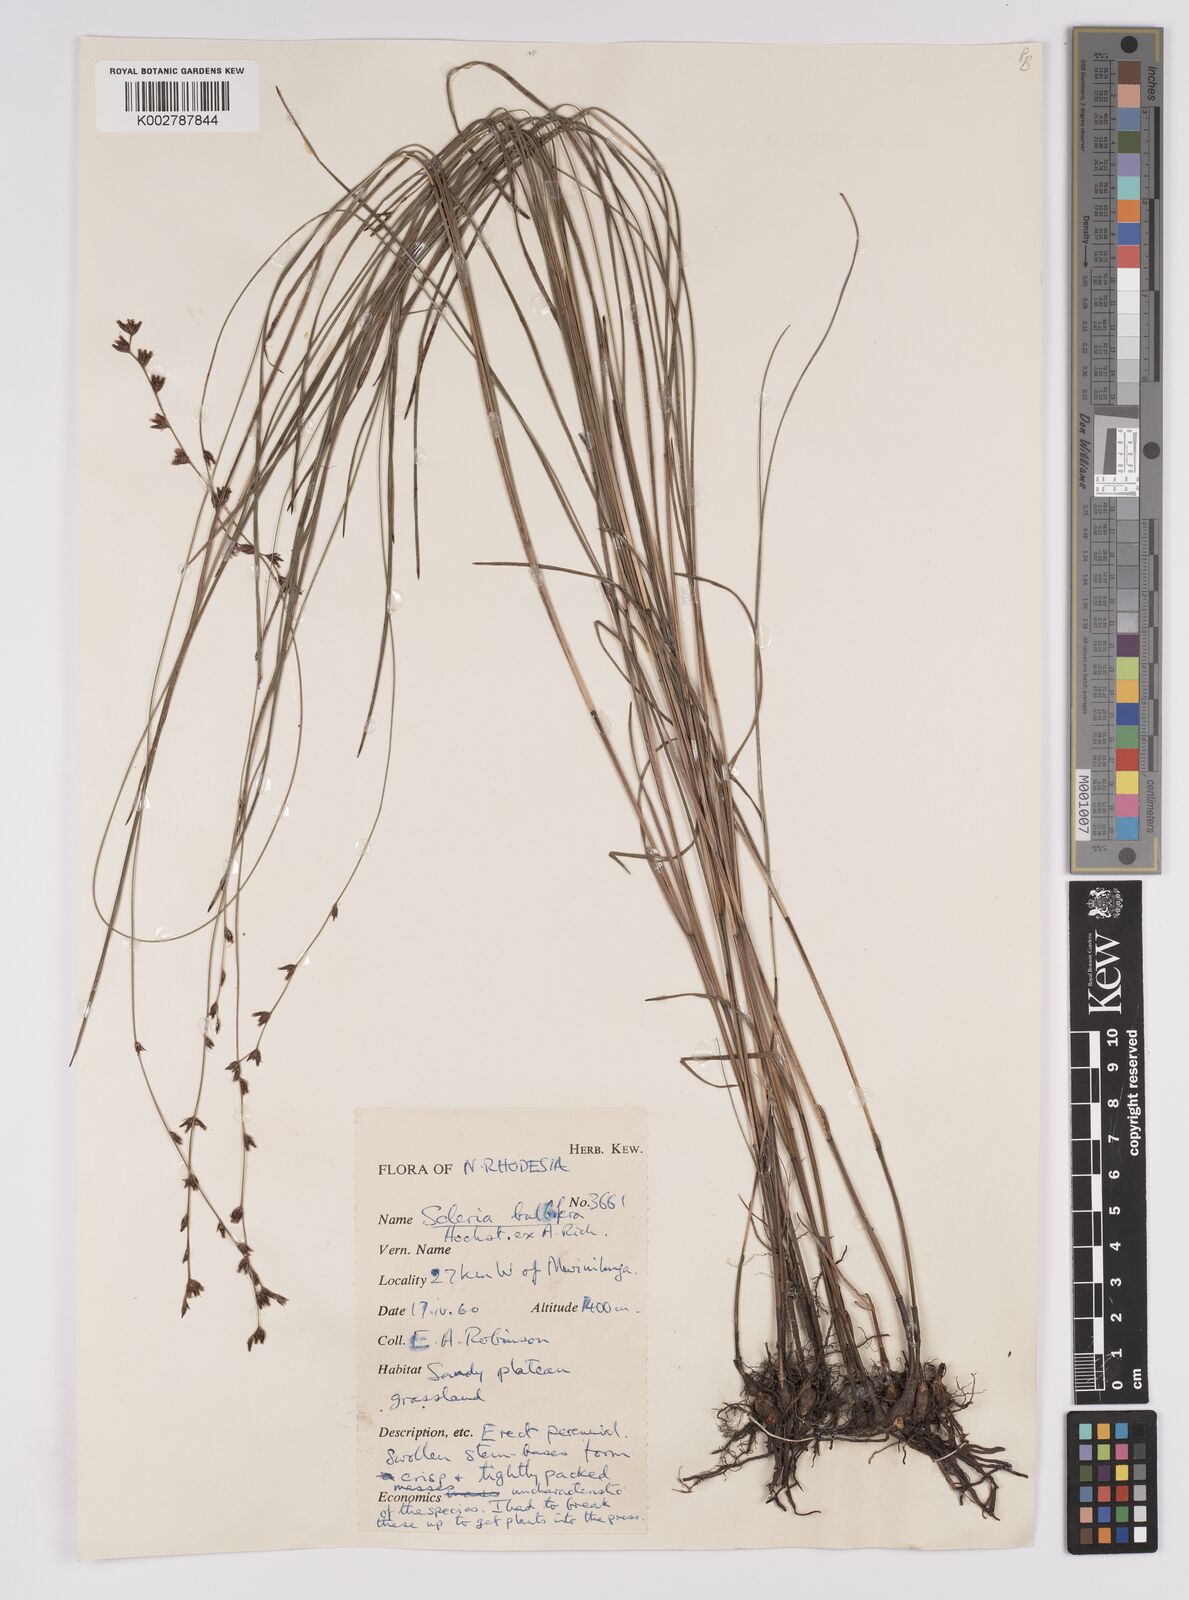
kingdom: Plantae
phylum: Tracheophyta
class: Liliopsida
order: Poales
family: Cyperaceae
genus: Scleria
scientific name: Scleria bulbifera
